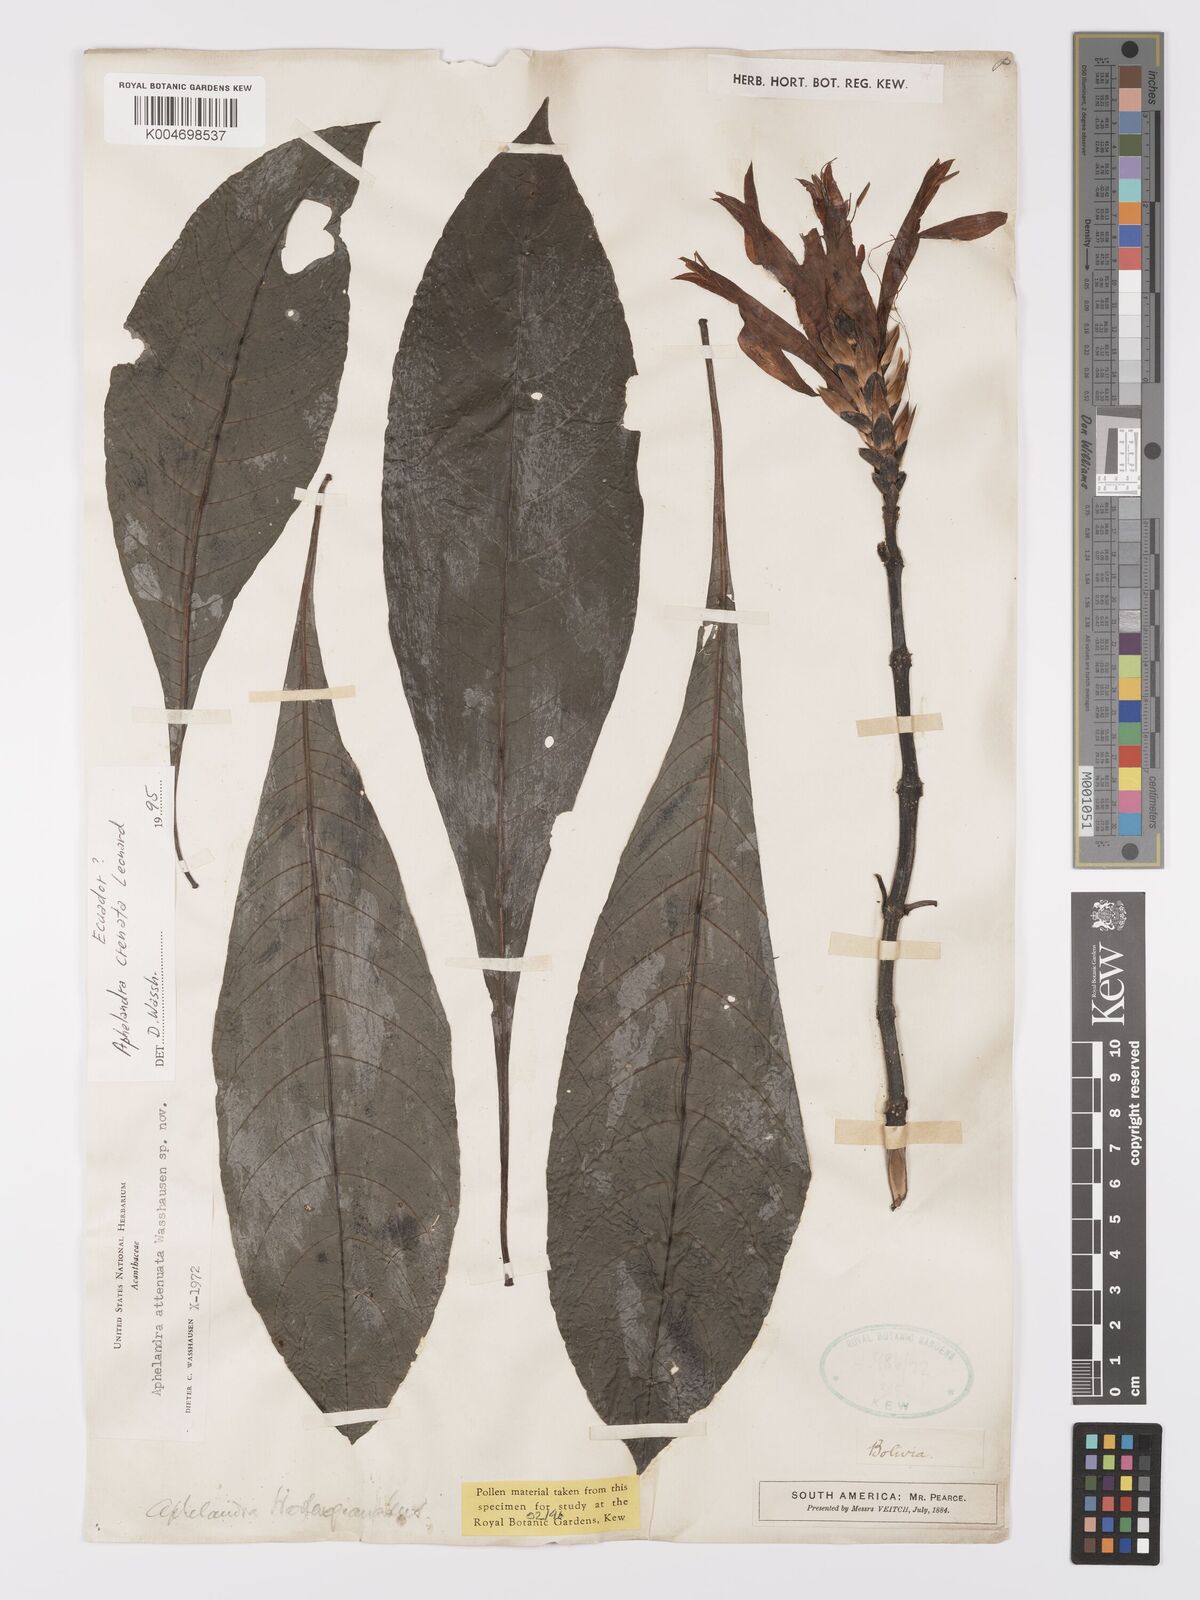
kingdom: Plantae
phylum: Tracheophyta
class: Magnoliopsida
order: Lamiales
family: Acanthaceae
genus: Aphelandra
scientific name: Aphelandra crenata
